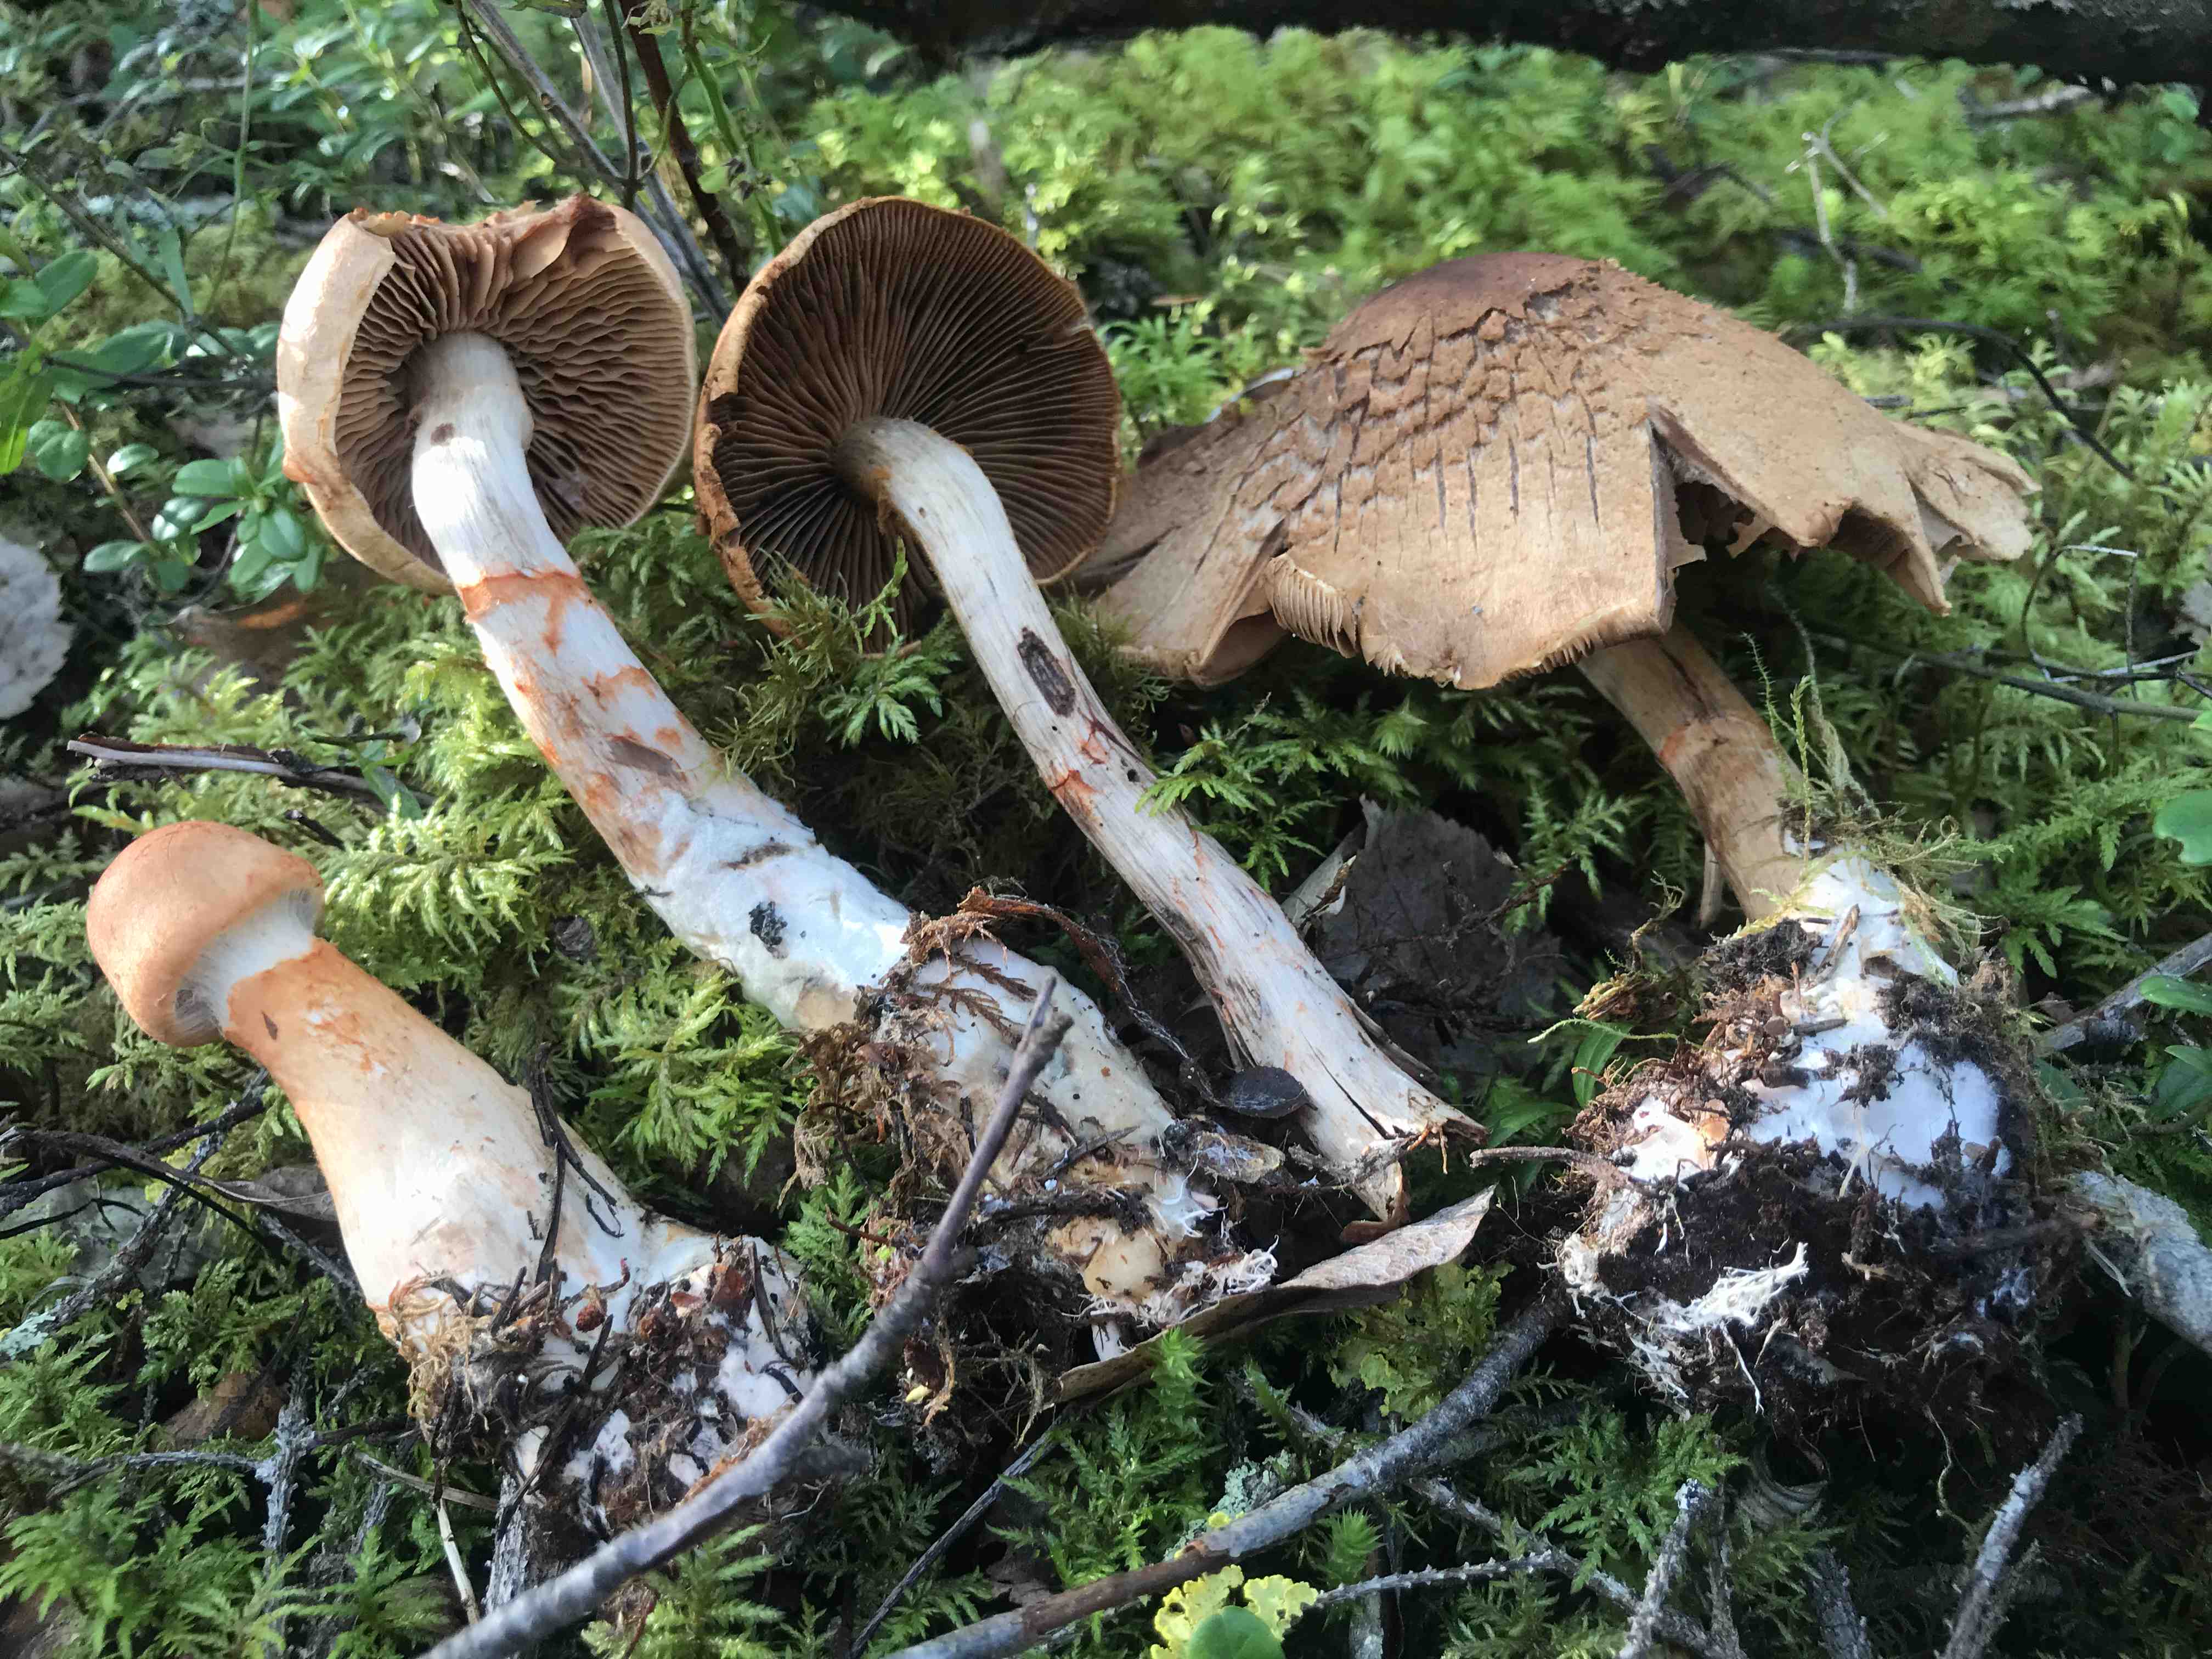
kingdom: Fungi
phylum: Basidiomycota
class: Agaricomycetes
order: Agaricales
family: Cortinariaceae
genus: Cortinarius
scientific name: Cortinarius armillatus
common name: cinnoberbæltet slørhat
